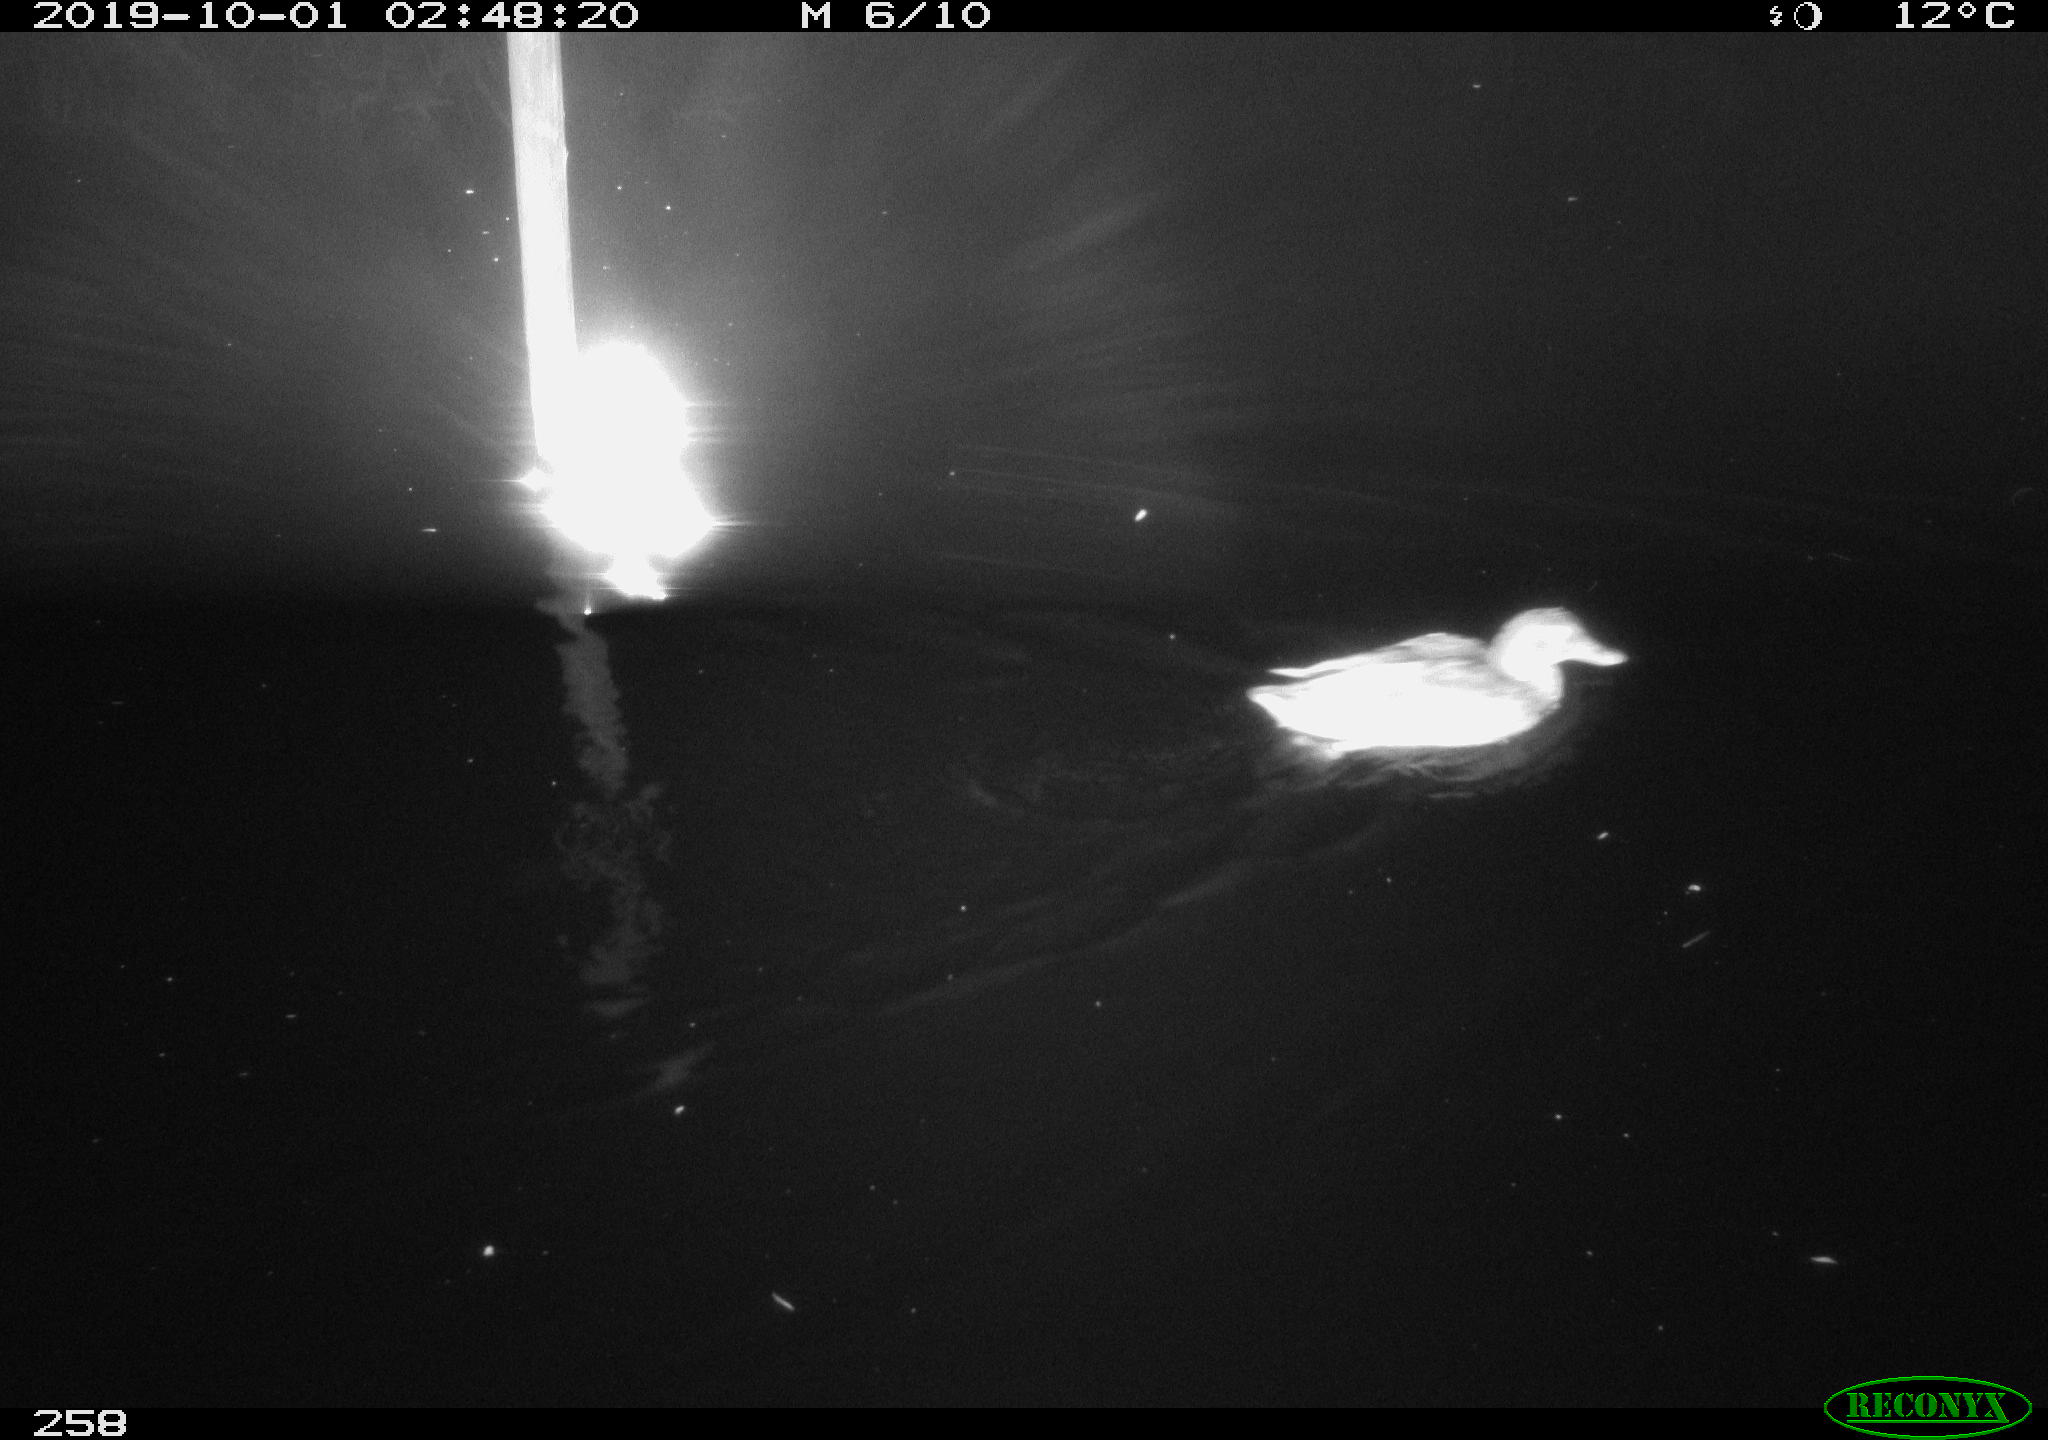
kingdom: Animalia
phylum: Chordata
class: Aves
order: Anseriformes
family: Anatidae
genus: Anas
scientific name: Anas platyrhynchos
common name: Mallard
